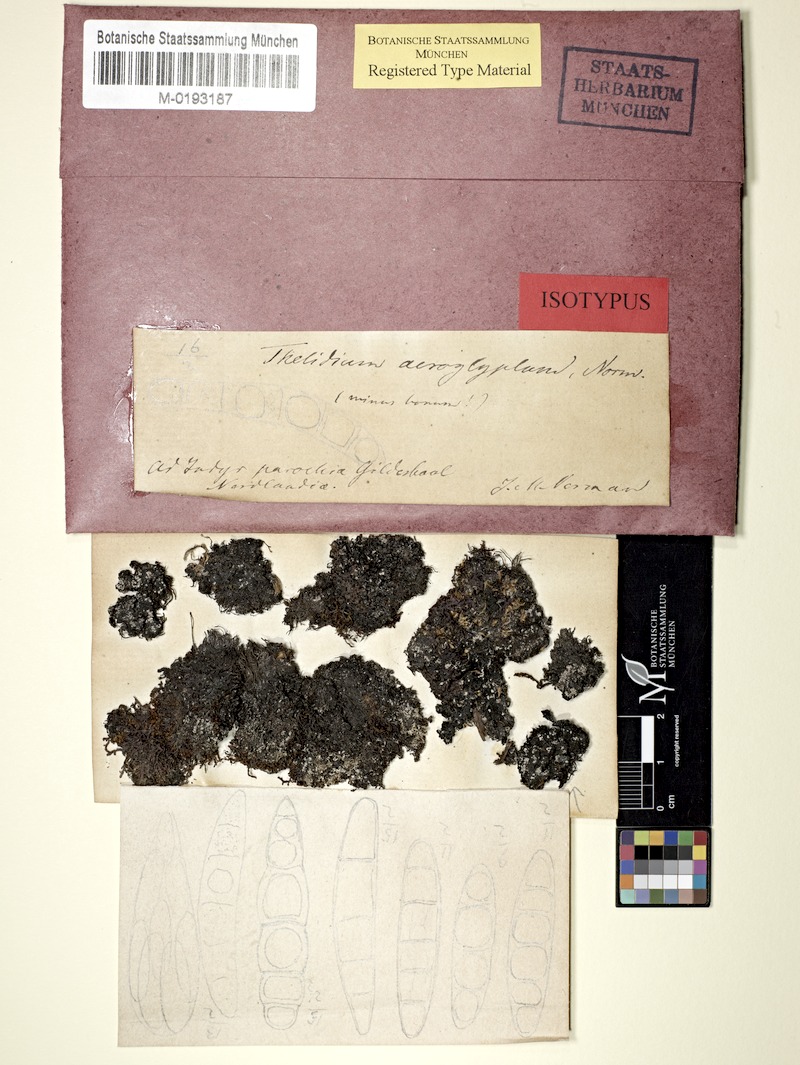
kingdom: Fungi
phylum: Ascomycota
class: Eurotiomycetes
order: Verrucariales
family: Verrucariaceae
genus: Normandina
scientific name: Normandina acroglypta
